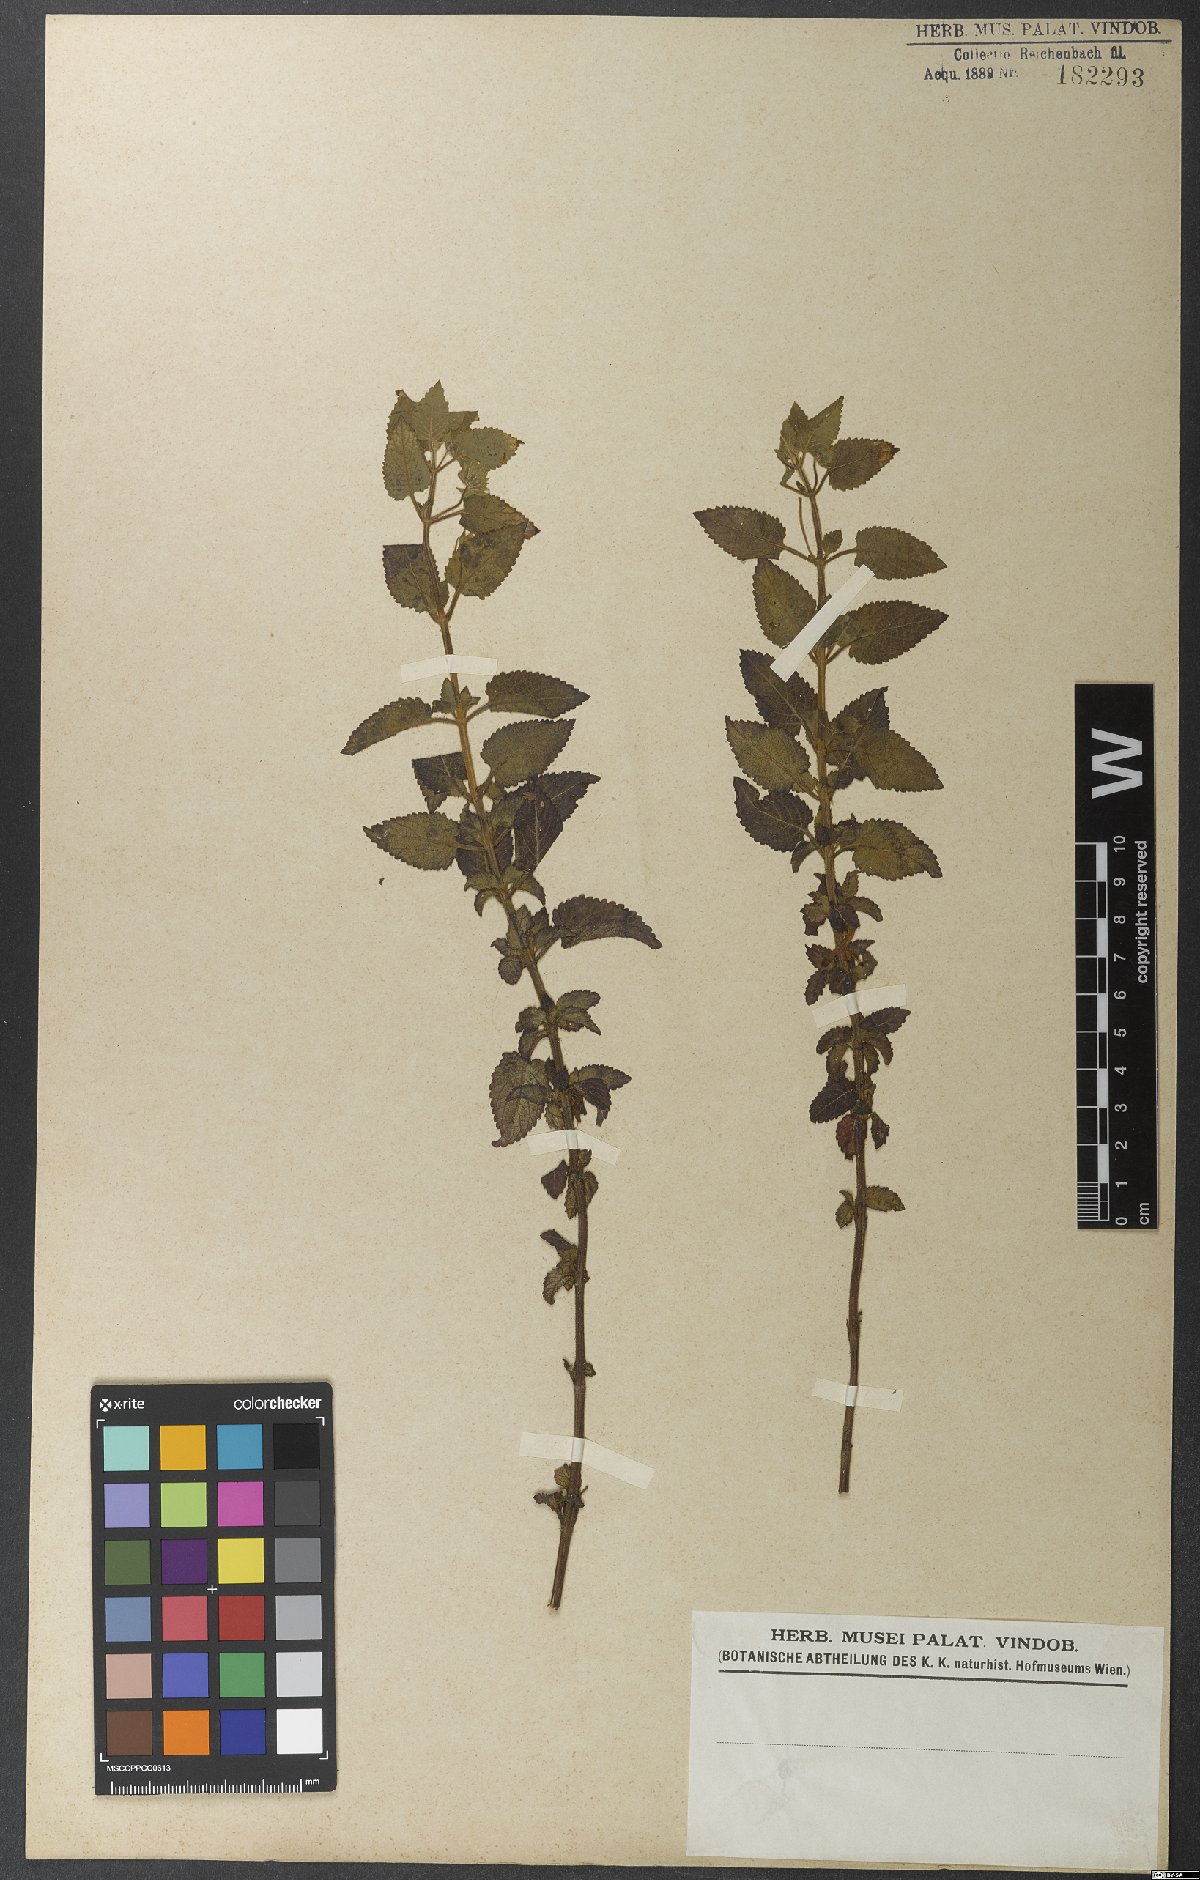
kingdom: Plantae
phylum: Tracheophyta
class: Magnoliopsida
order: Lamiales
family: Lamiaceae
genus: Marsypianthes
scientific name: Marsypianthes chamaedrys
